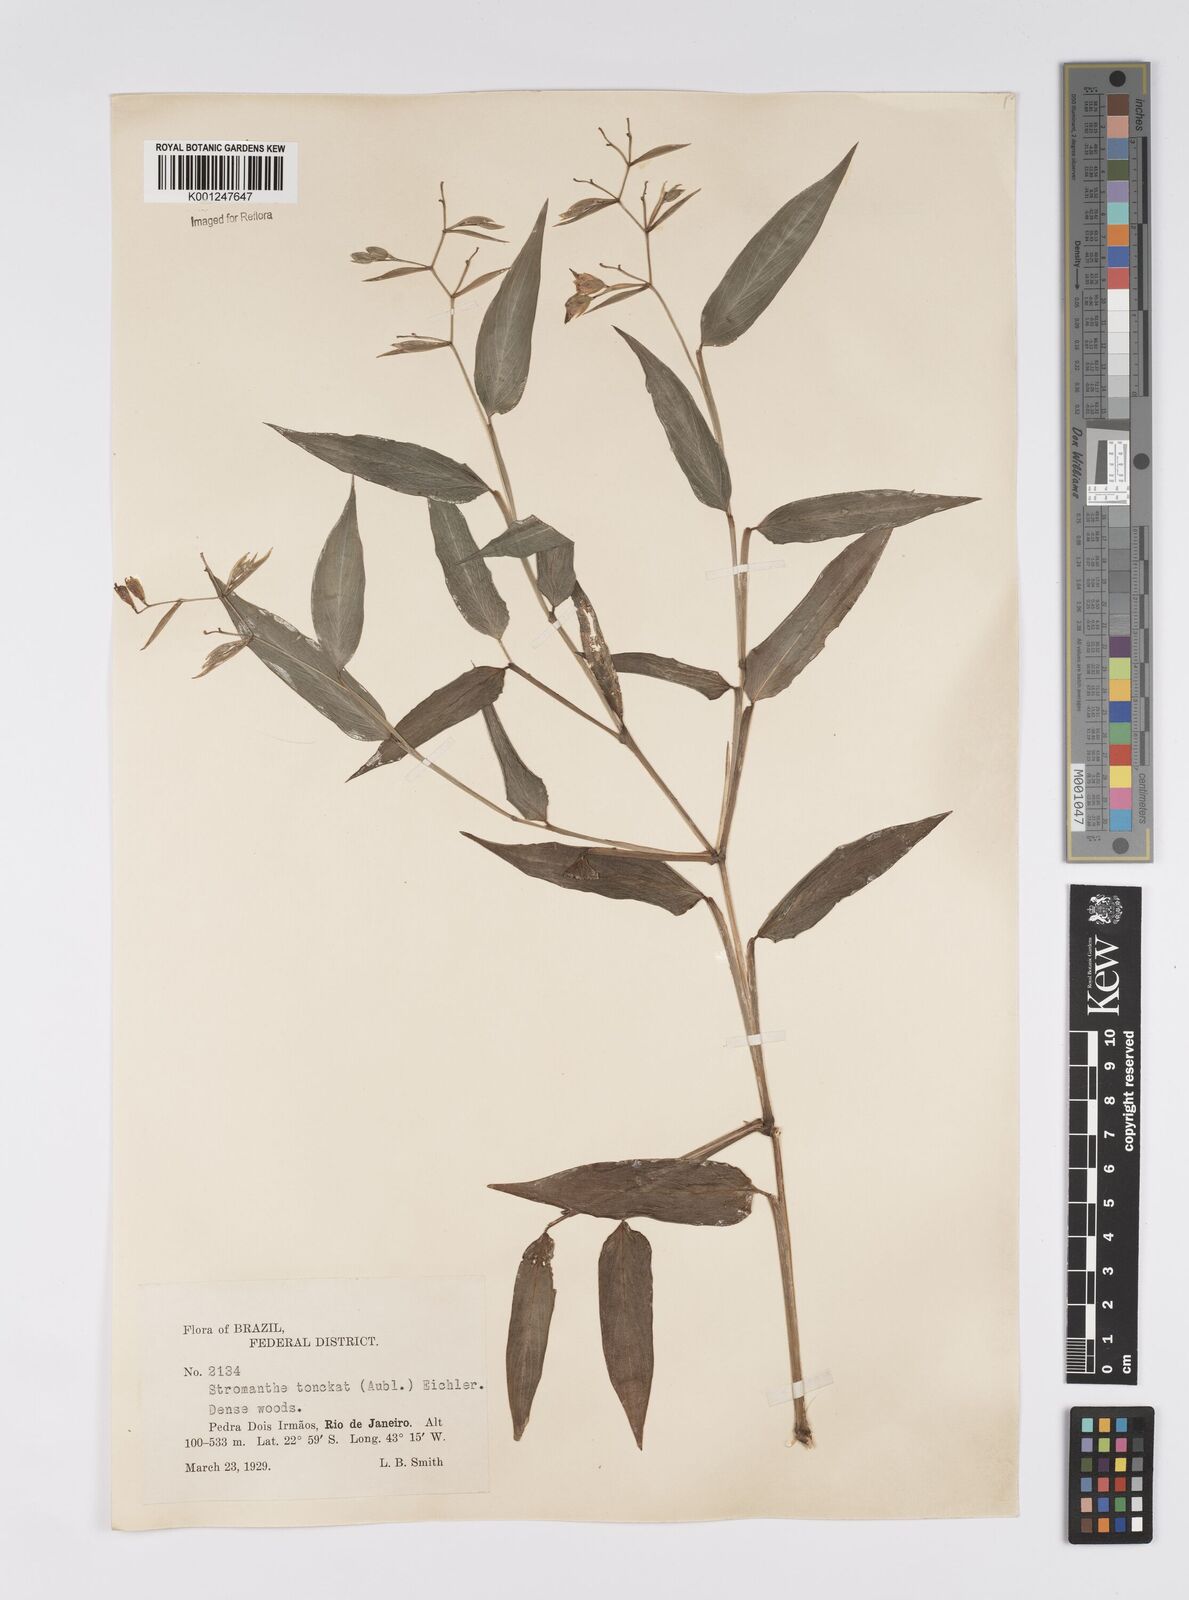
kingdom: Plantae
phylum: Tracheophyta
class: Liliopsida
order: Zingiberales
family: Marantaceae
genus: Stromanthe
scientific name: Stromanthe tonckat
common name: Stromanthe
